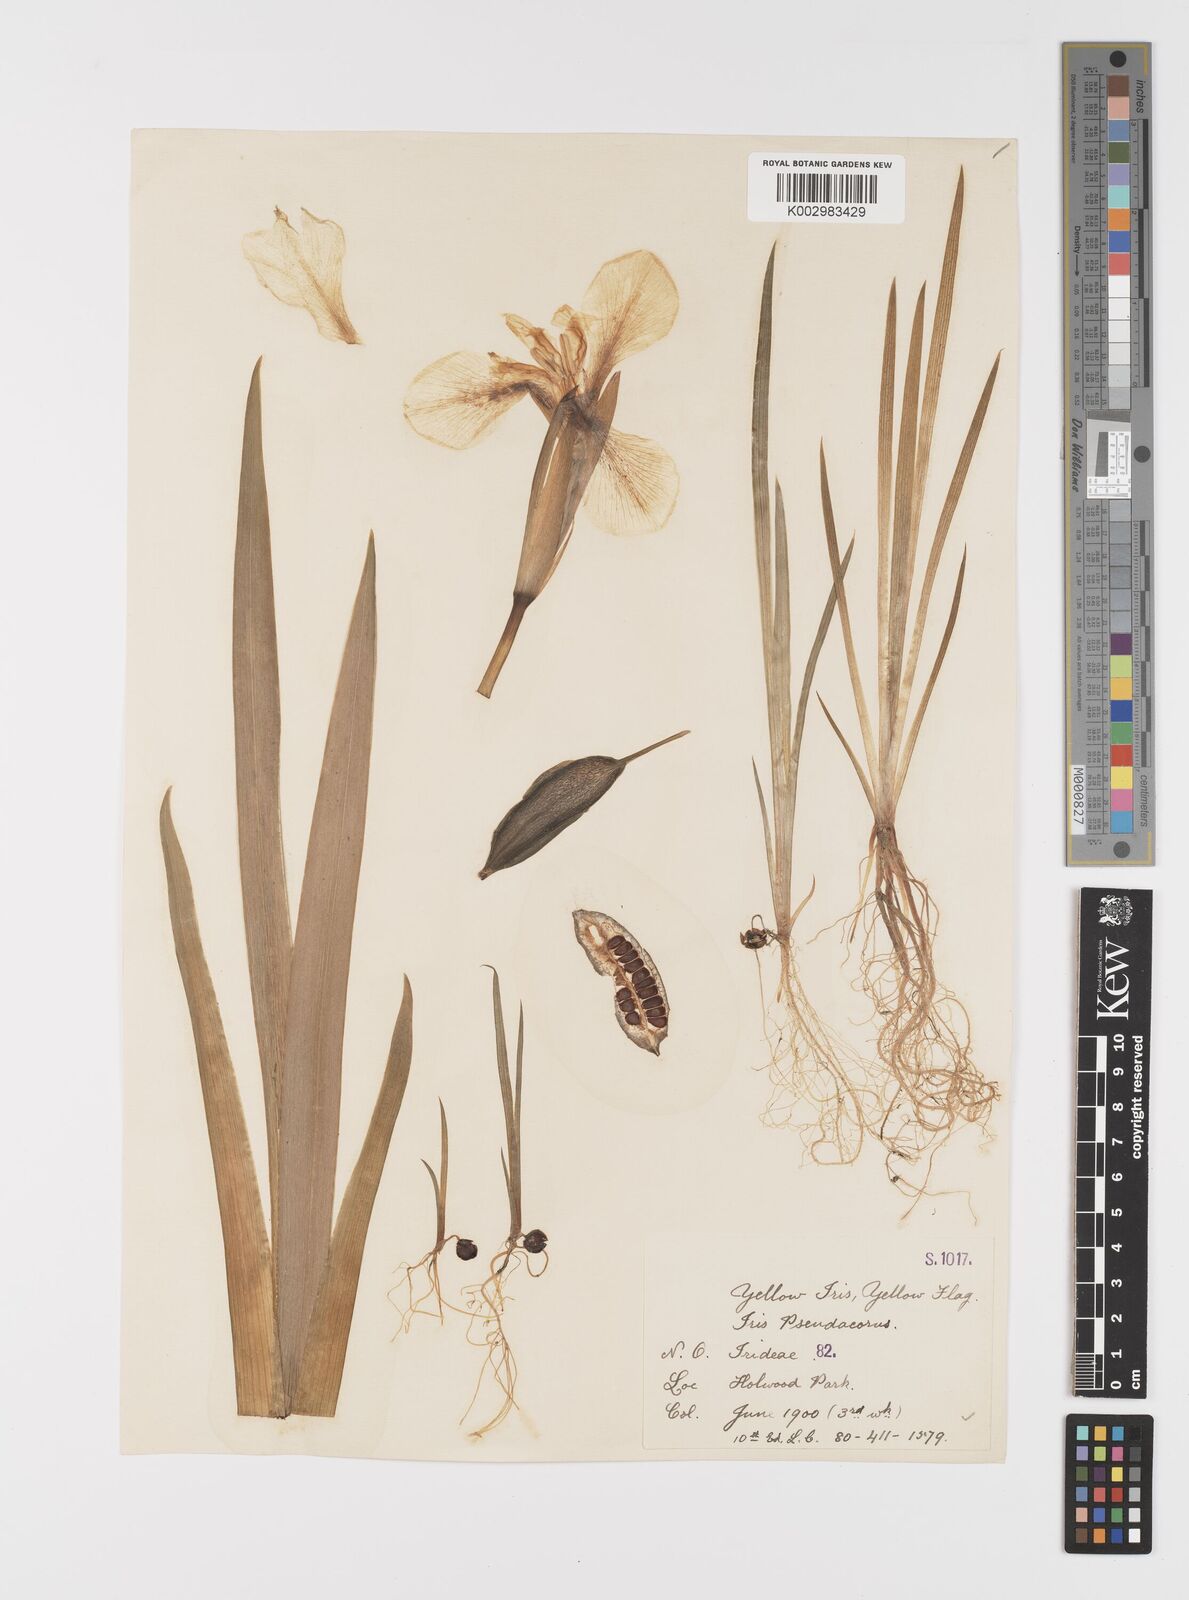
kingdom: Plantae
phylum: Tracheophyta
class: Liliopsida
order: Asparagales
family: Iridaceae
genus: Iris
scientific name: Iris pseudacorus
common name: Yellow flag
